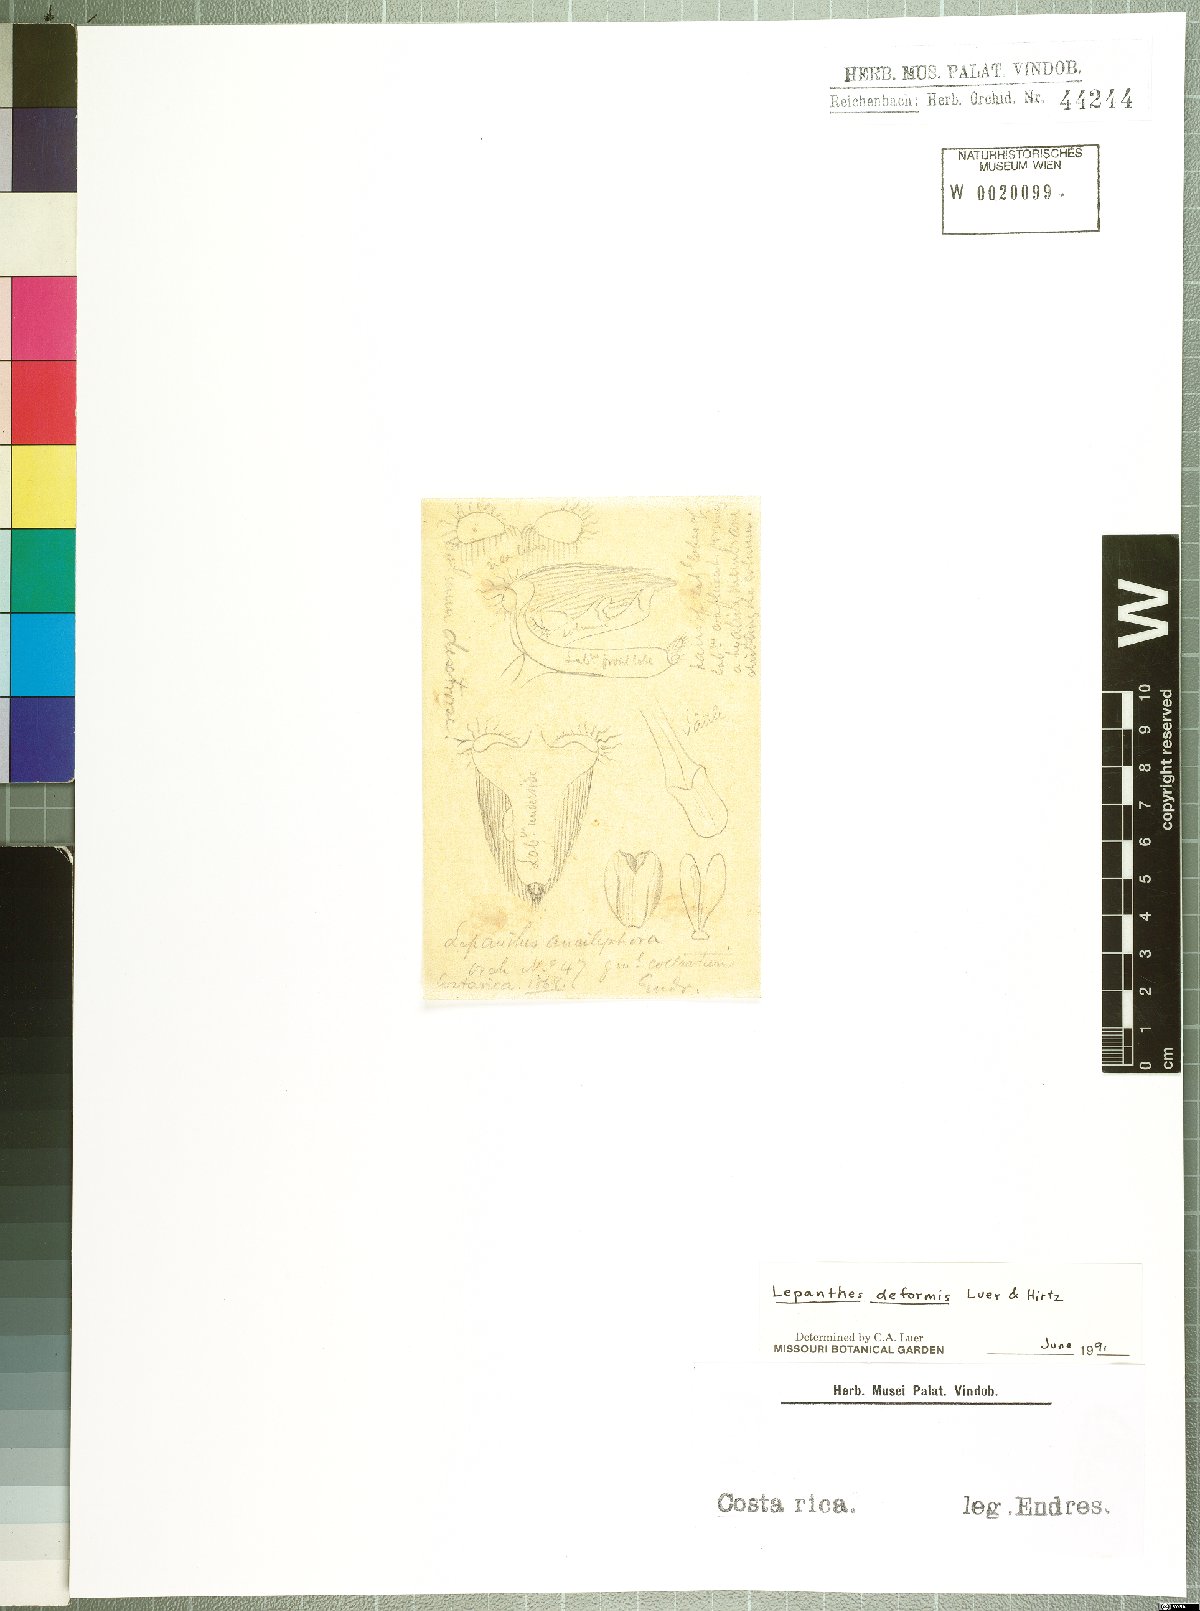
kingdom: Plantae
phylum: Tracheophyta
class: Liliopsida
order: Asparagales
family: Orchidaceae
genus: Lepanthes
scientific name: Lepanthes tipulifera
